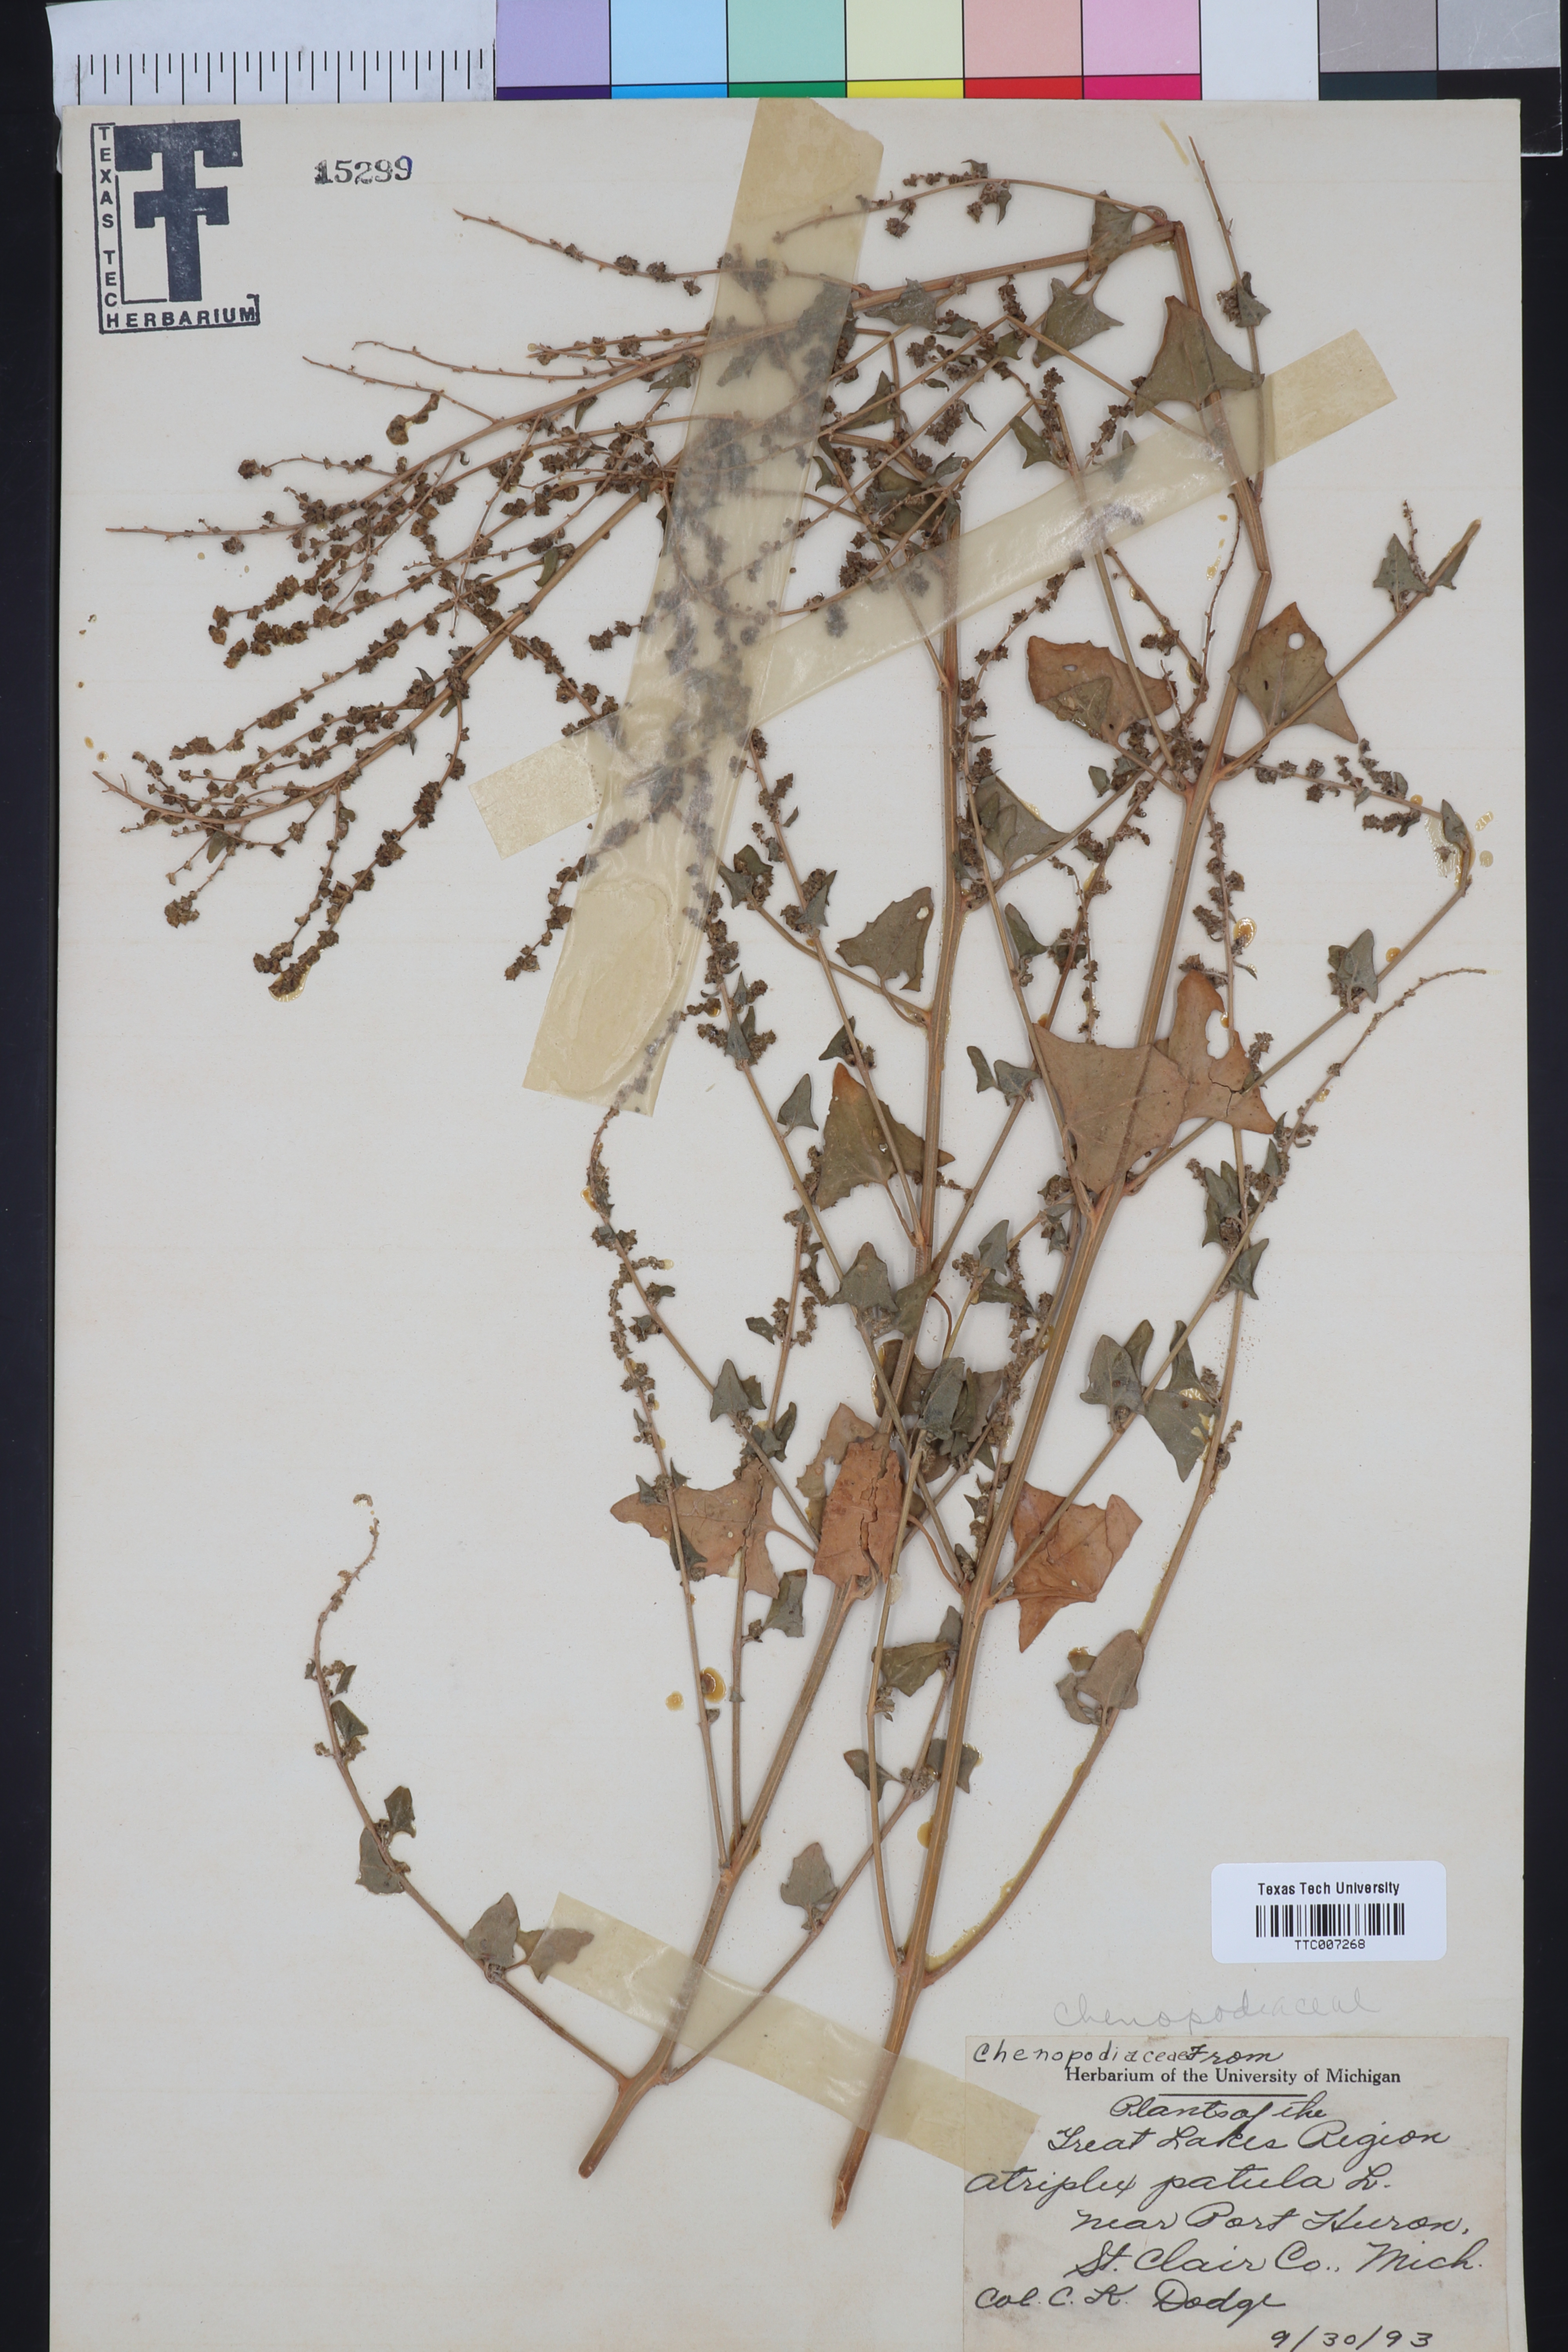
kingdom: Plantae
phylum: Tracheophyta
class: Magnoliopsida
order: Caryophyllales
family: Amaranthaceae
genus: Atriplex
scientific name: Atriplex patula
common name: Common orache
